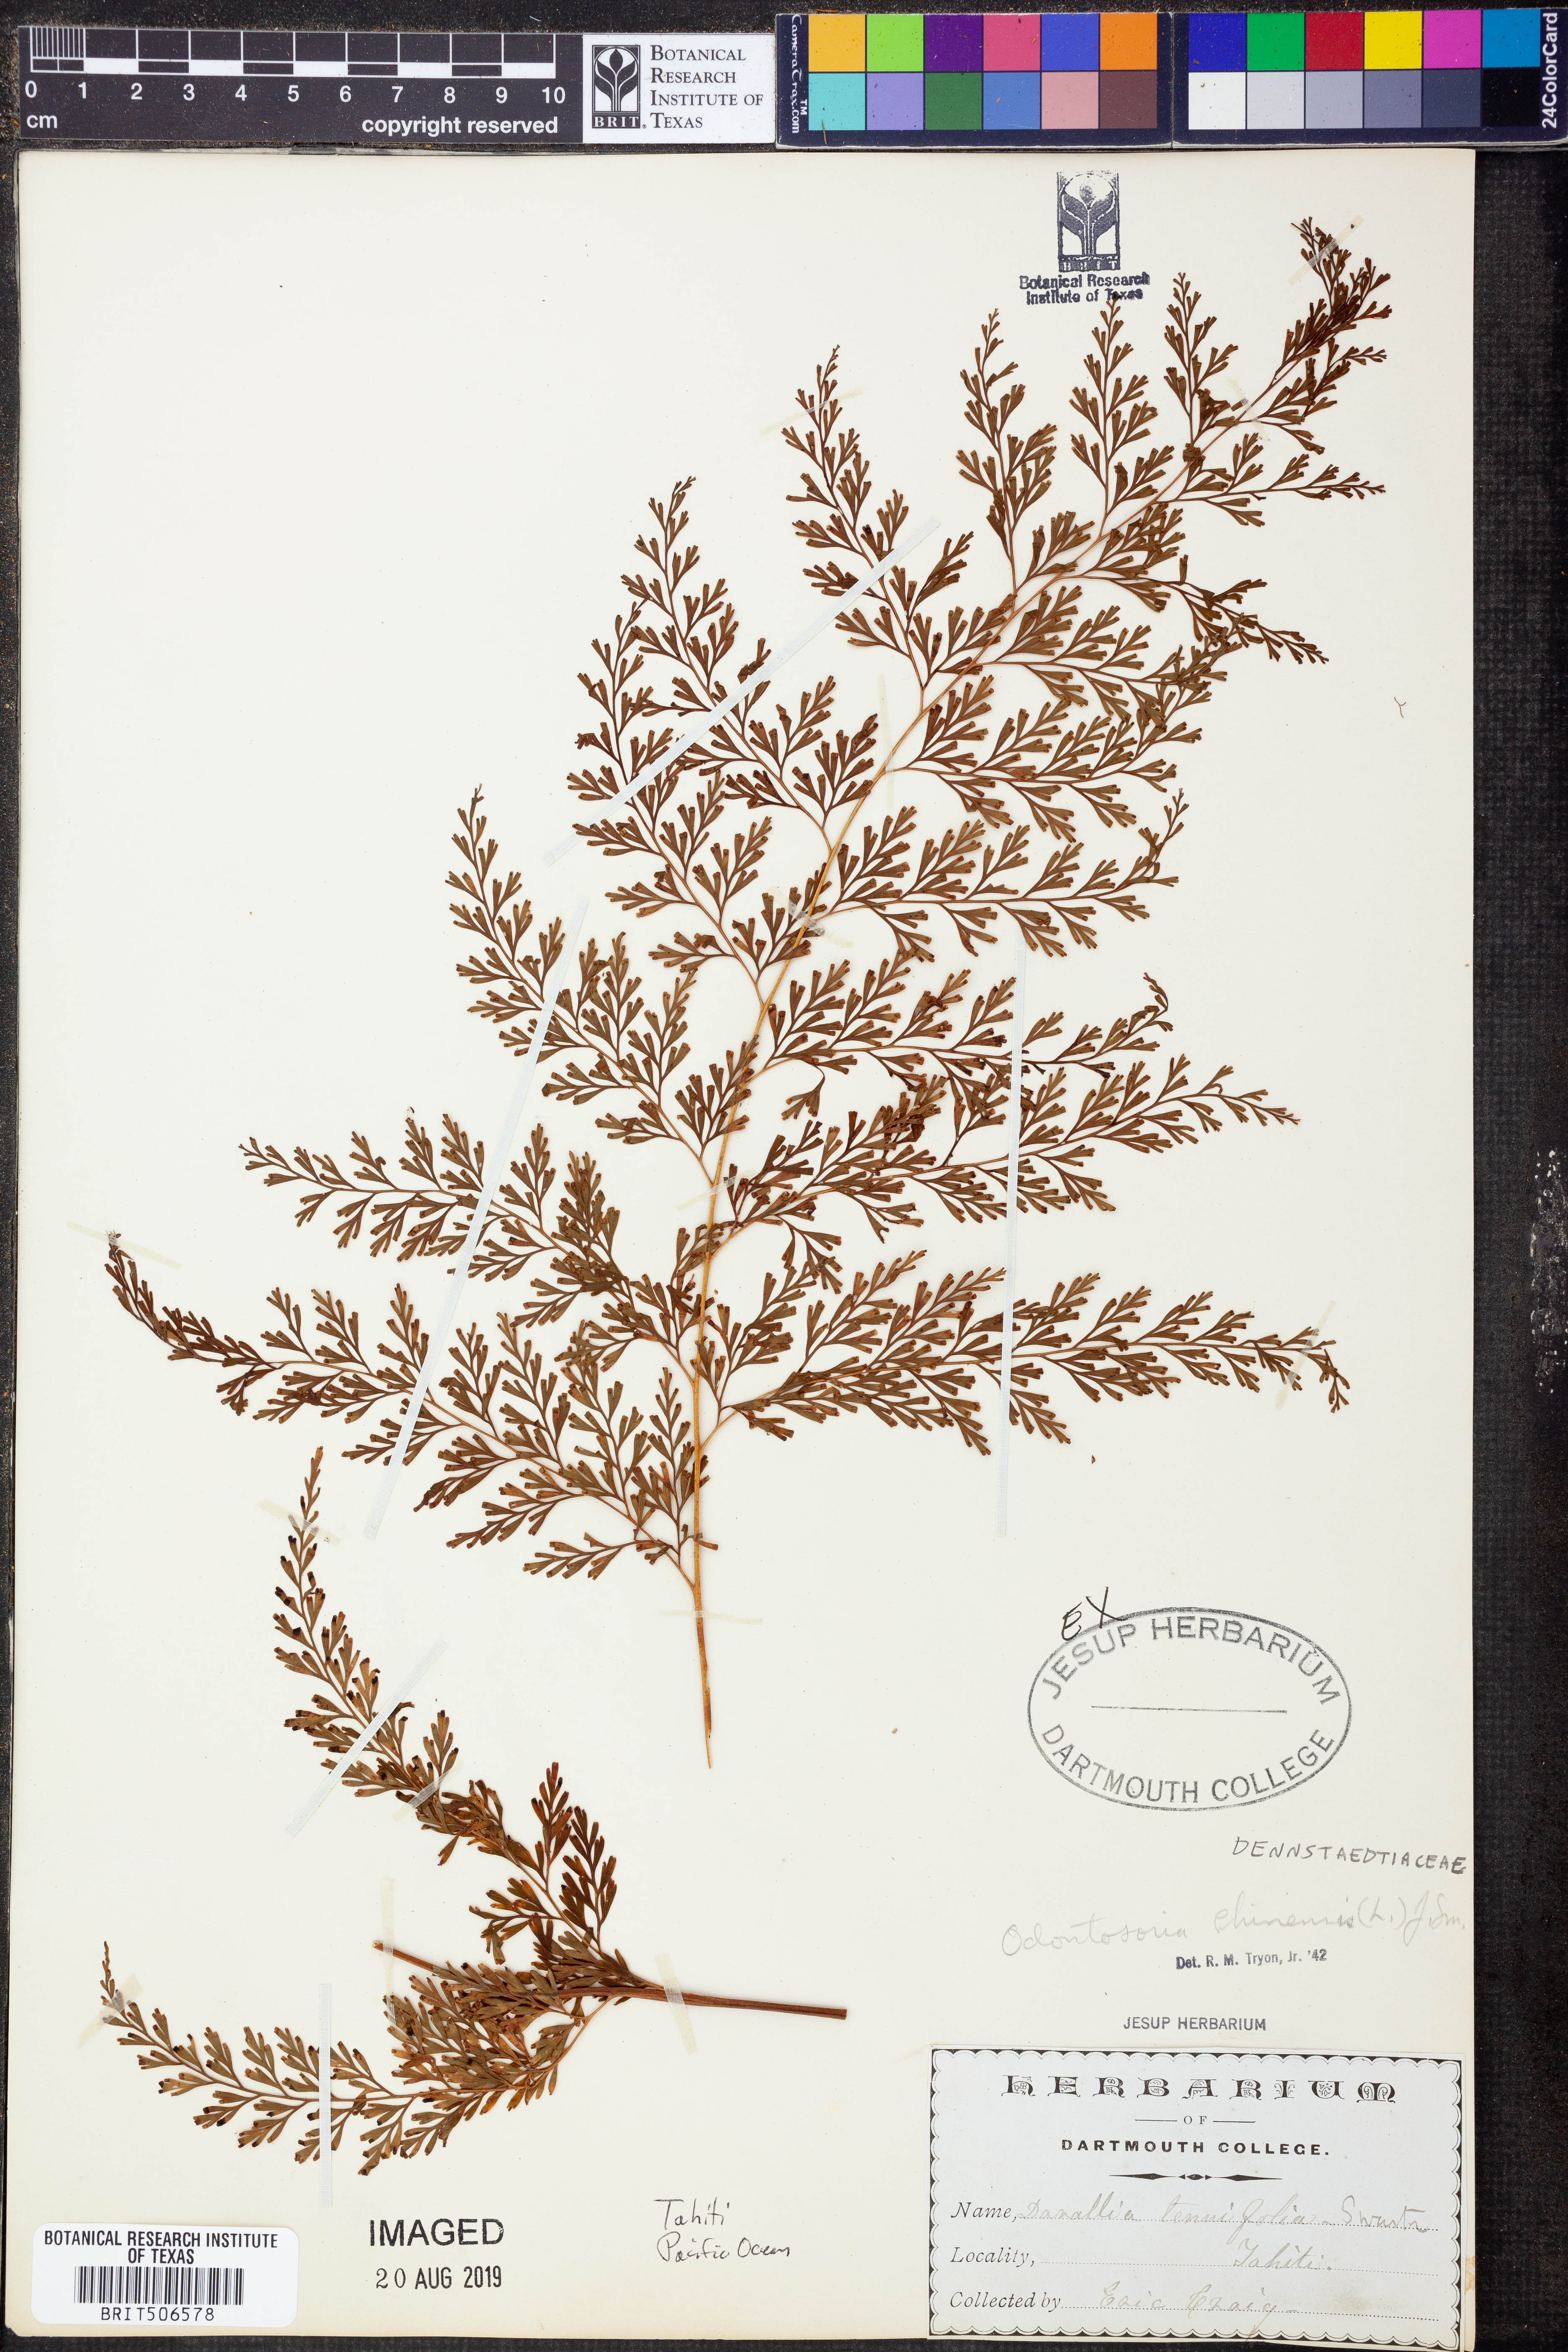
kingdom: Plantae
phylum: Tracheophyta
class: Polypodiopsida
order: Polypodiales
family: Lindsaeaceae
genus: Odontosoria
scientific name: Odontosoria chinensis
